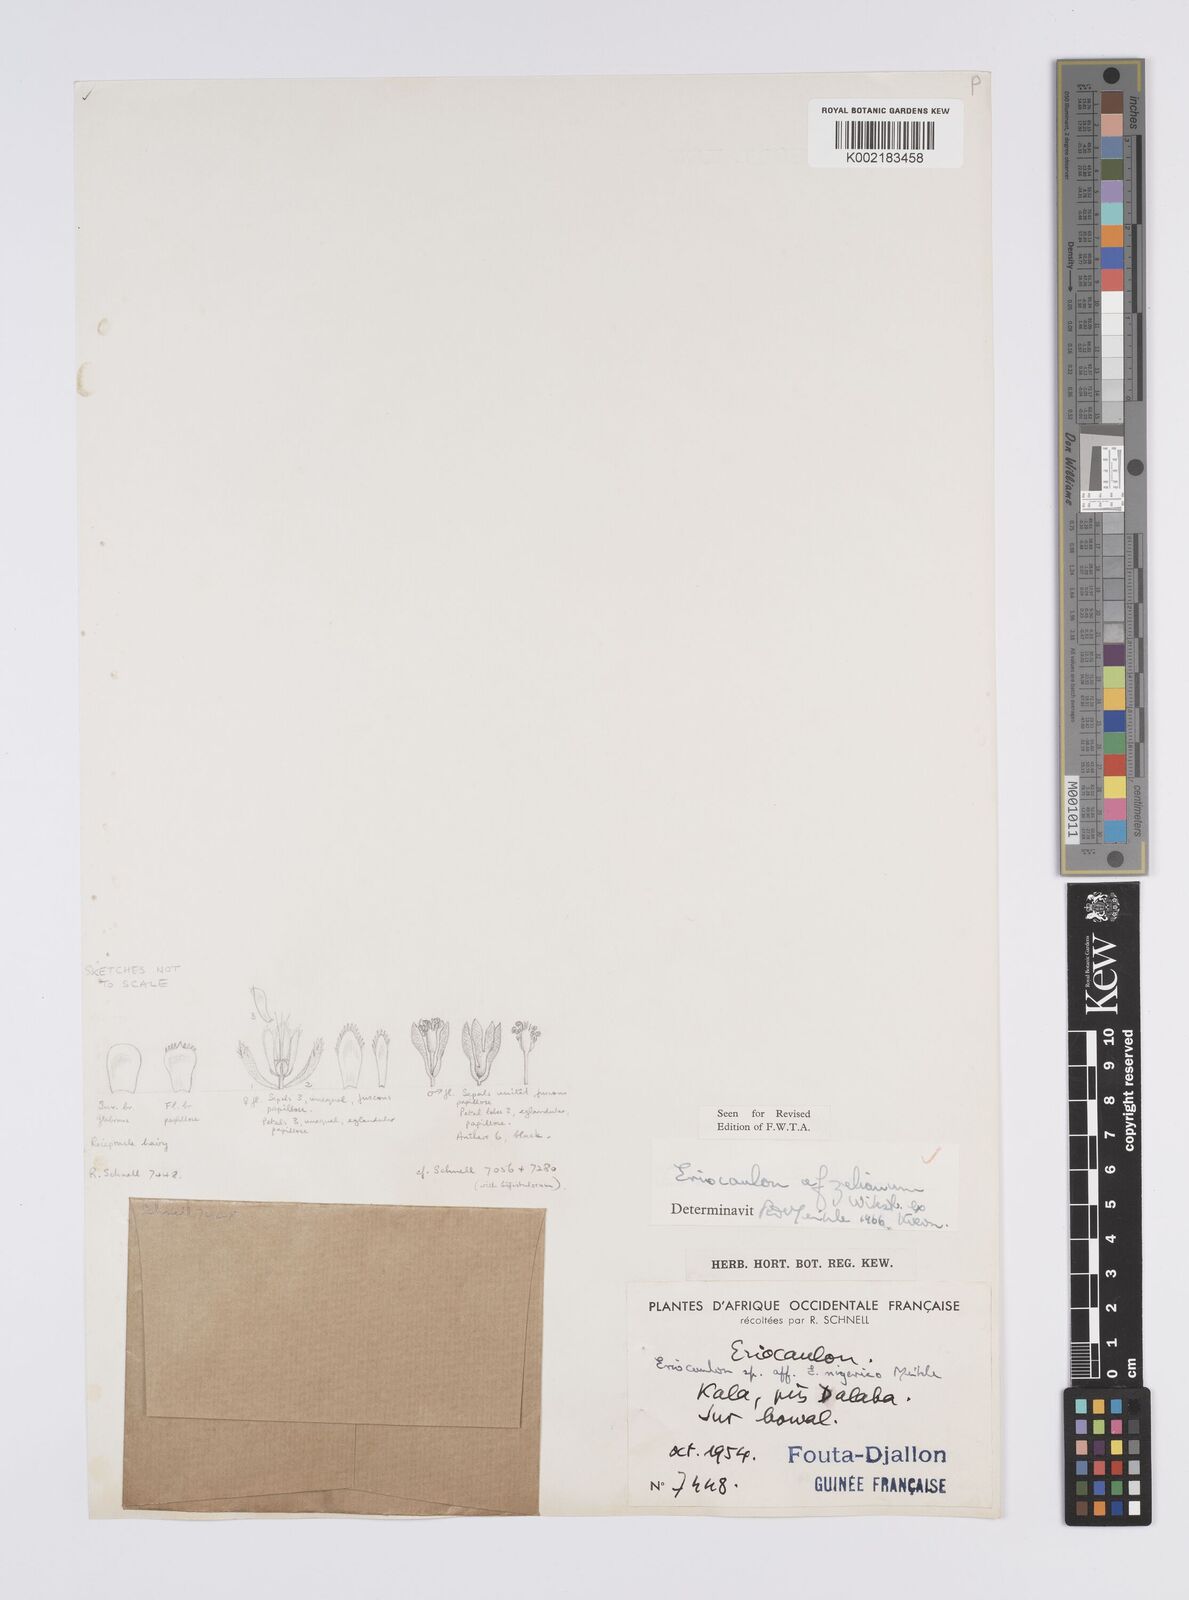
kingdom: Plantae
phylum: Tracheophyta
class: Liliopsida
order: Poales
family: Eriocaulaceae
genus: Eriocaulon
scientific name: Eriocaulon afzelianum
